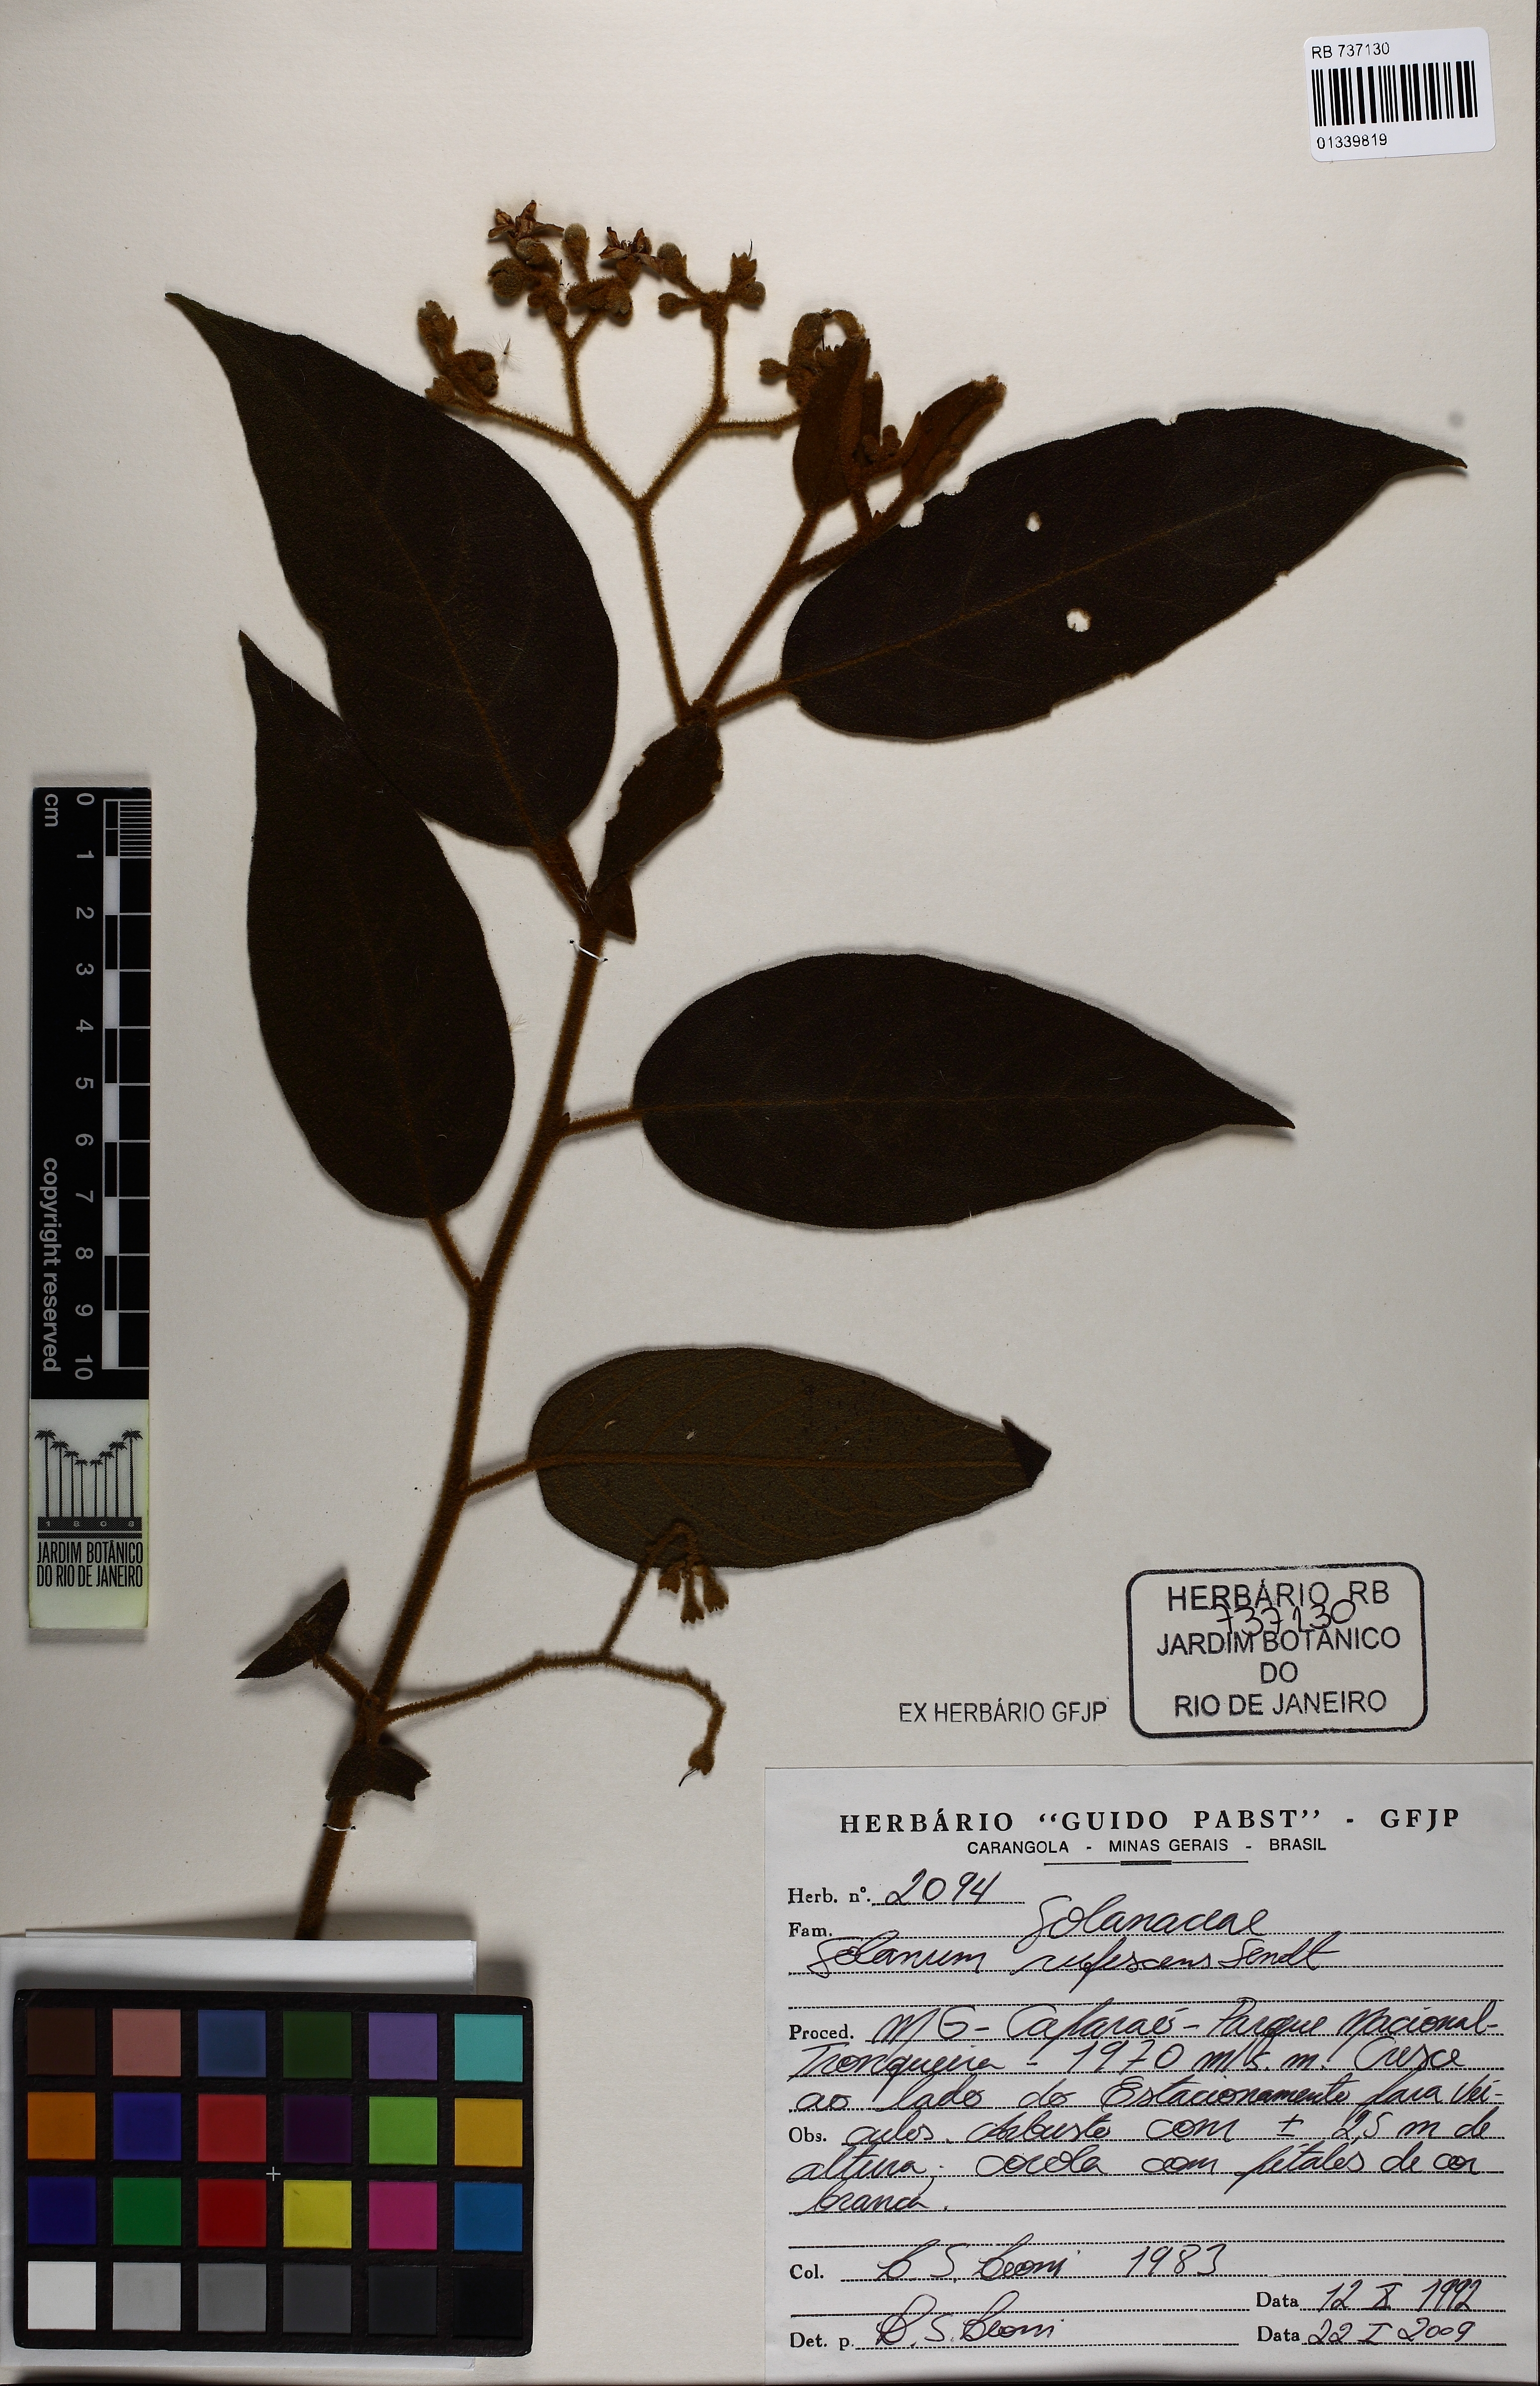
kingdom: Plantae
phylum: Tracheophyta
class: Magnoliopsida
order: Solanales
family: Solanaceae
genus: Solanum
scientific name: Solanum rufescens
